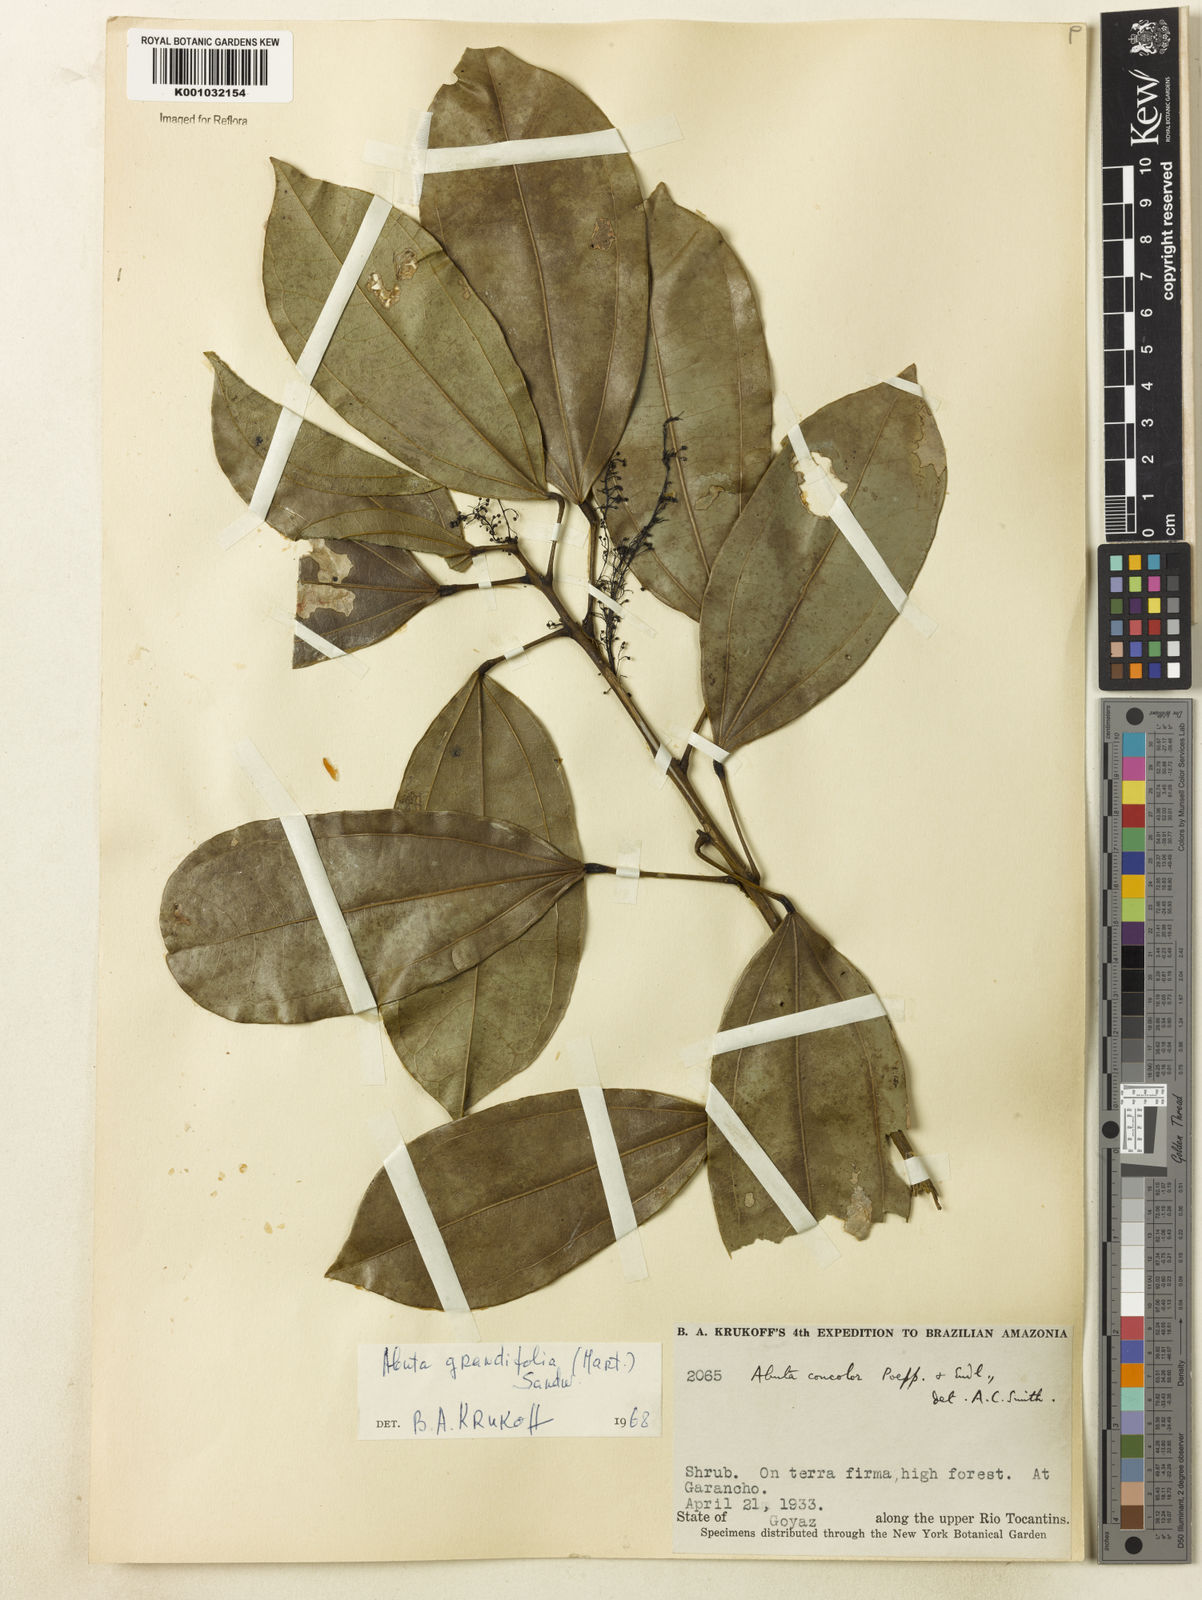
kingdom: Plantae
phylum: Tracheophyta
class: Magnoliopsida
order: Ranunculales
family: Menispermaceae
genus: Abuta
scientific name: Abuta grandifolia
